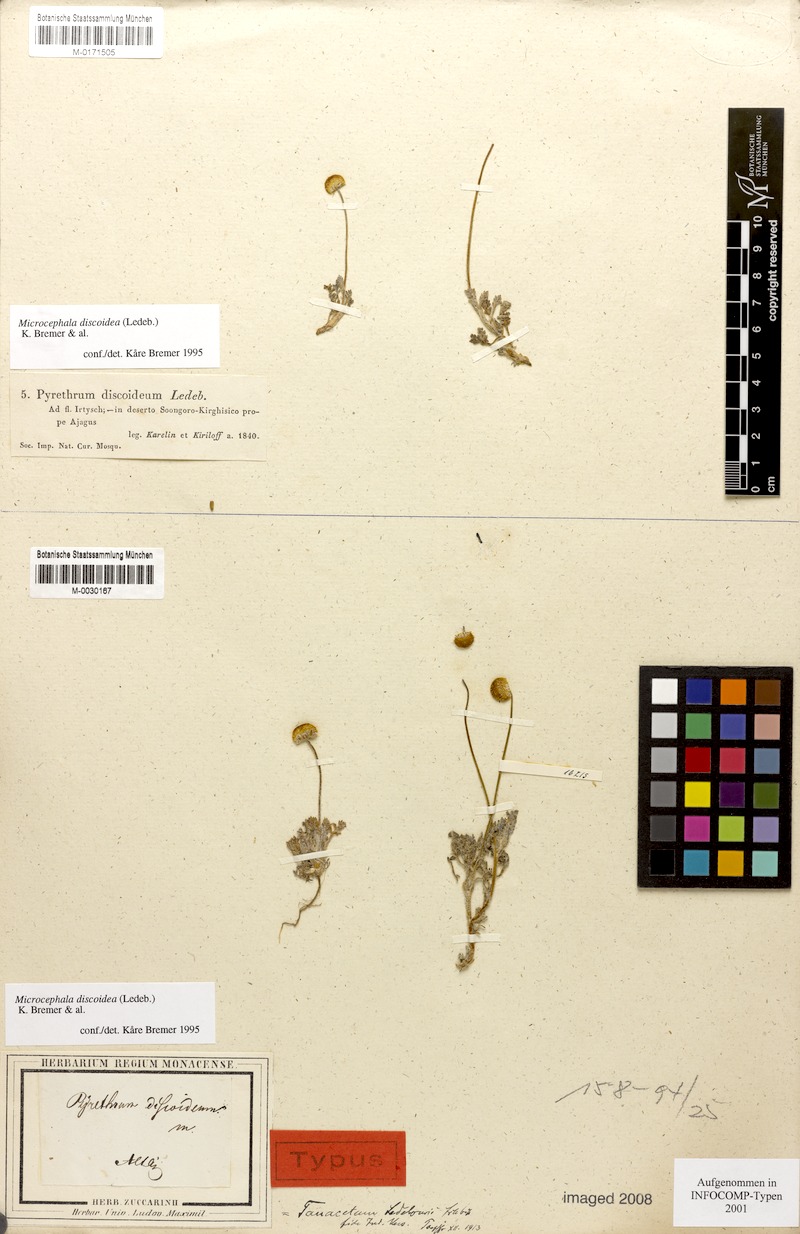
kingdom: Plantae
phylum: Tracheophyta
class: Magnoliopsida
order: Asterales
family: Asteraceae
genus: Cancrinia
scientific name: Cancrinia discoidea
